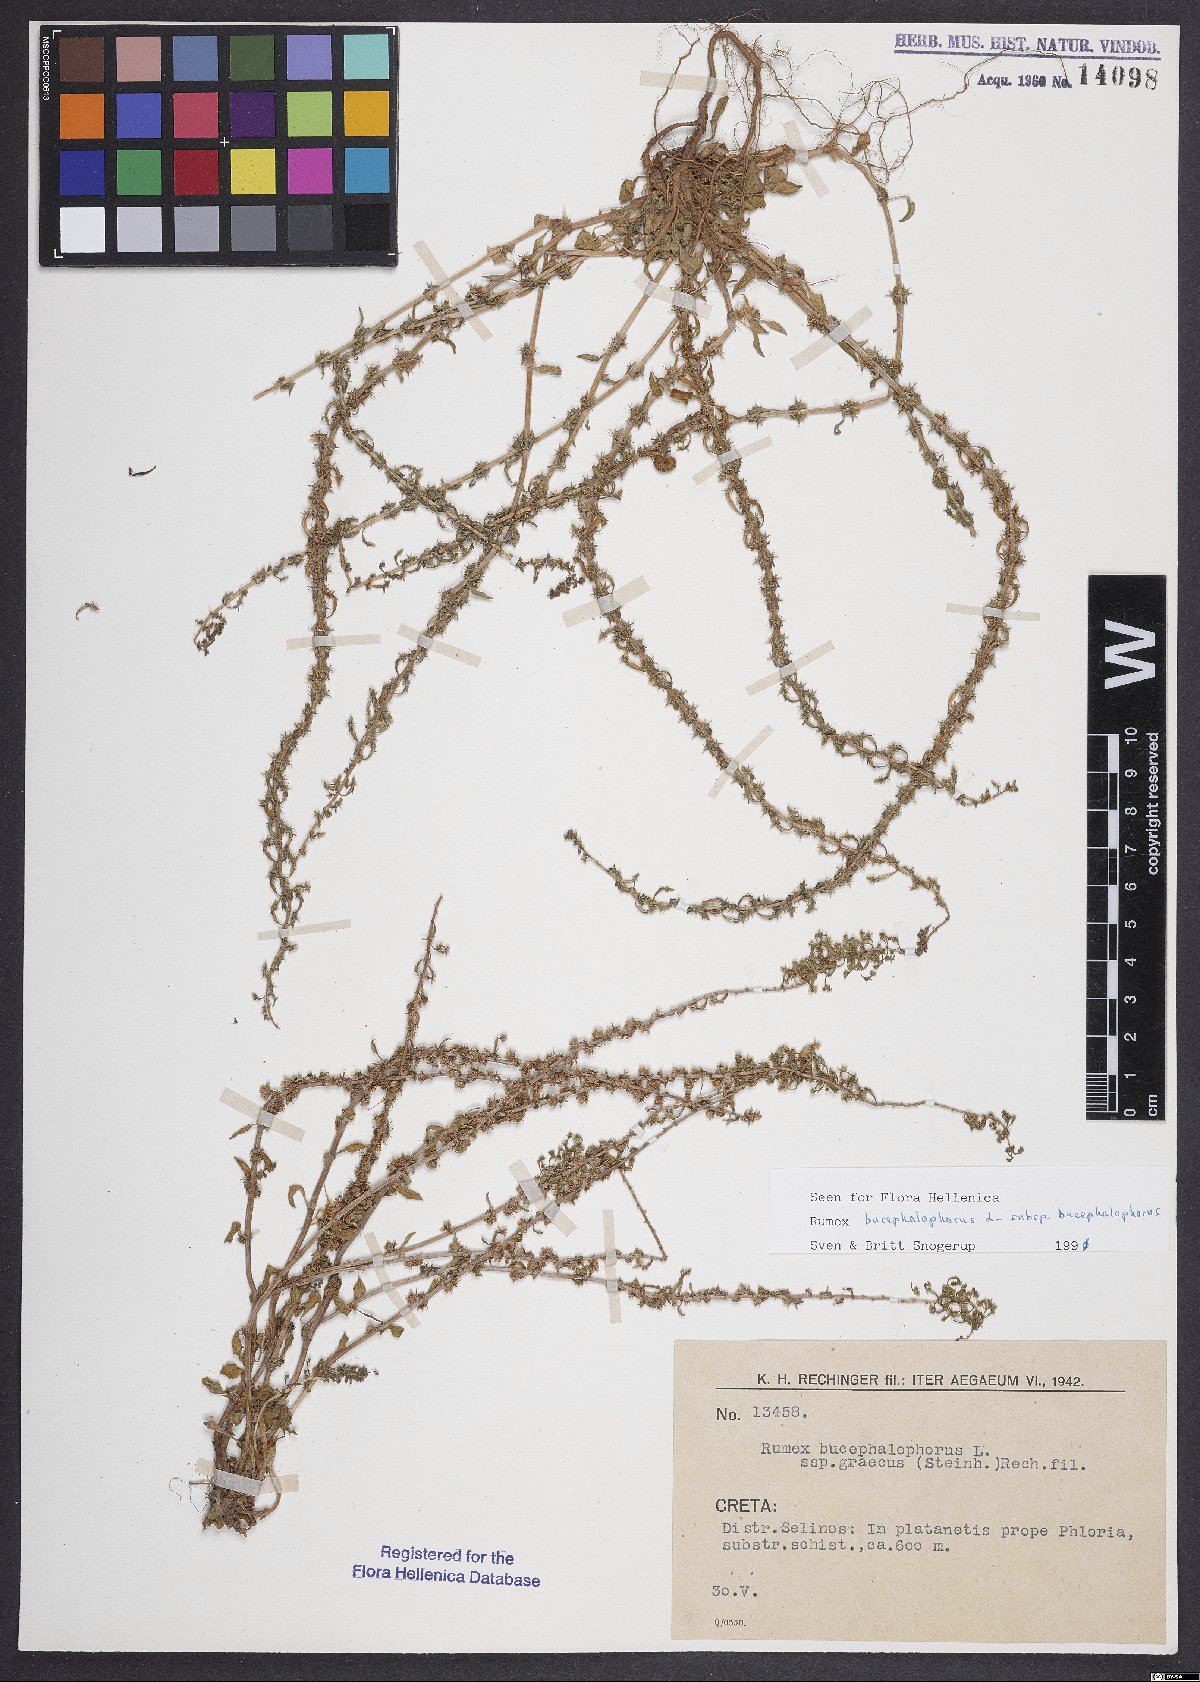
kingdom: Plantae
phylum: Tracheophyta
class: Magnoliopsida
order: Caryophyllales
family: Polygonaceae
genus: Rumex
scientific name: Rumex bucephalophorus
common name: Red dock
